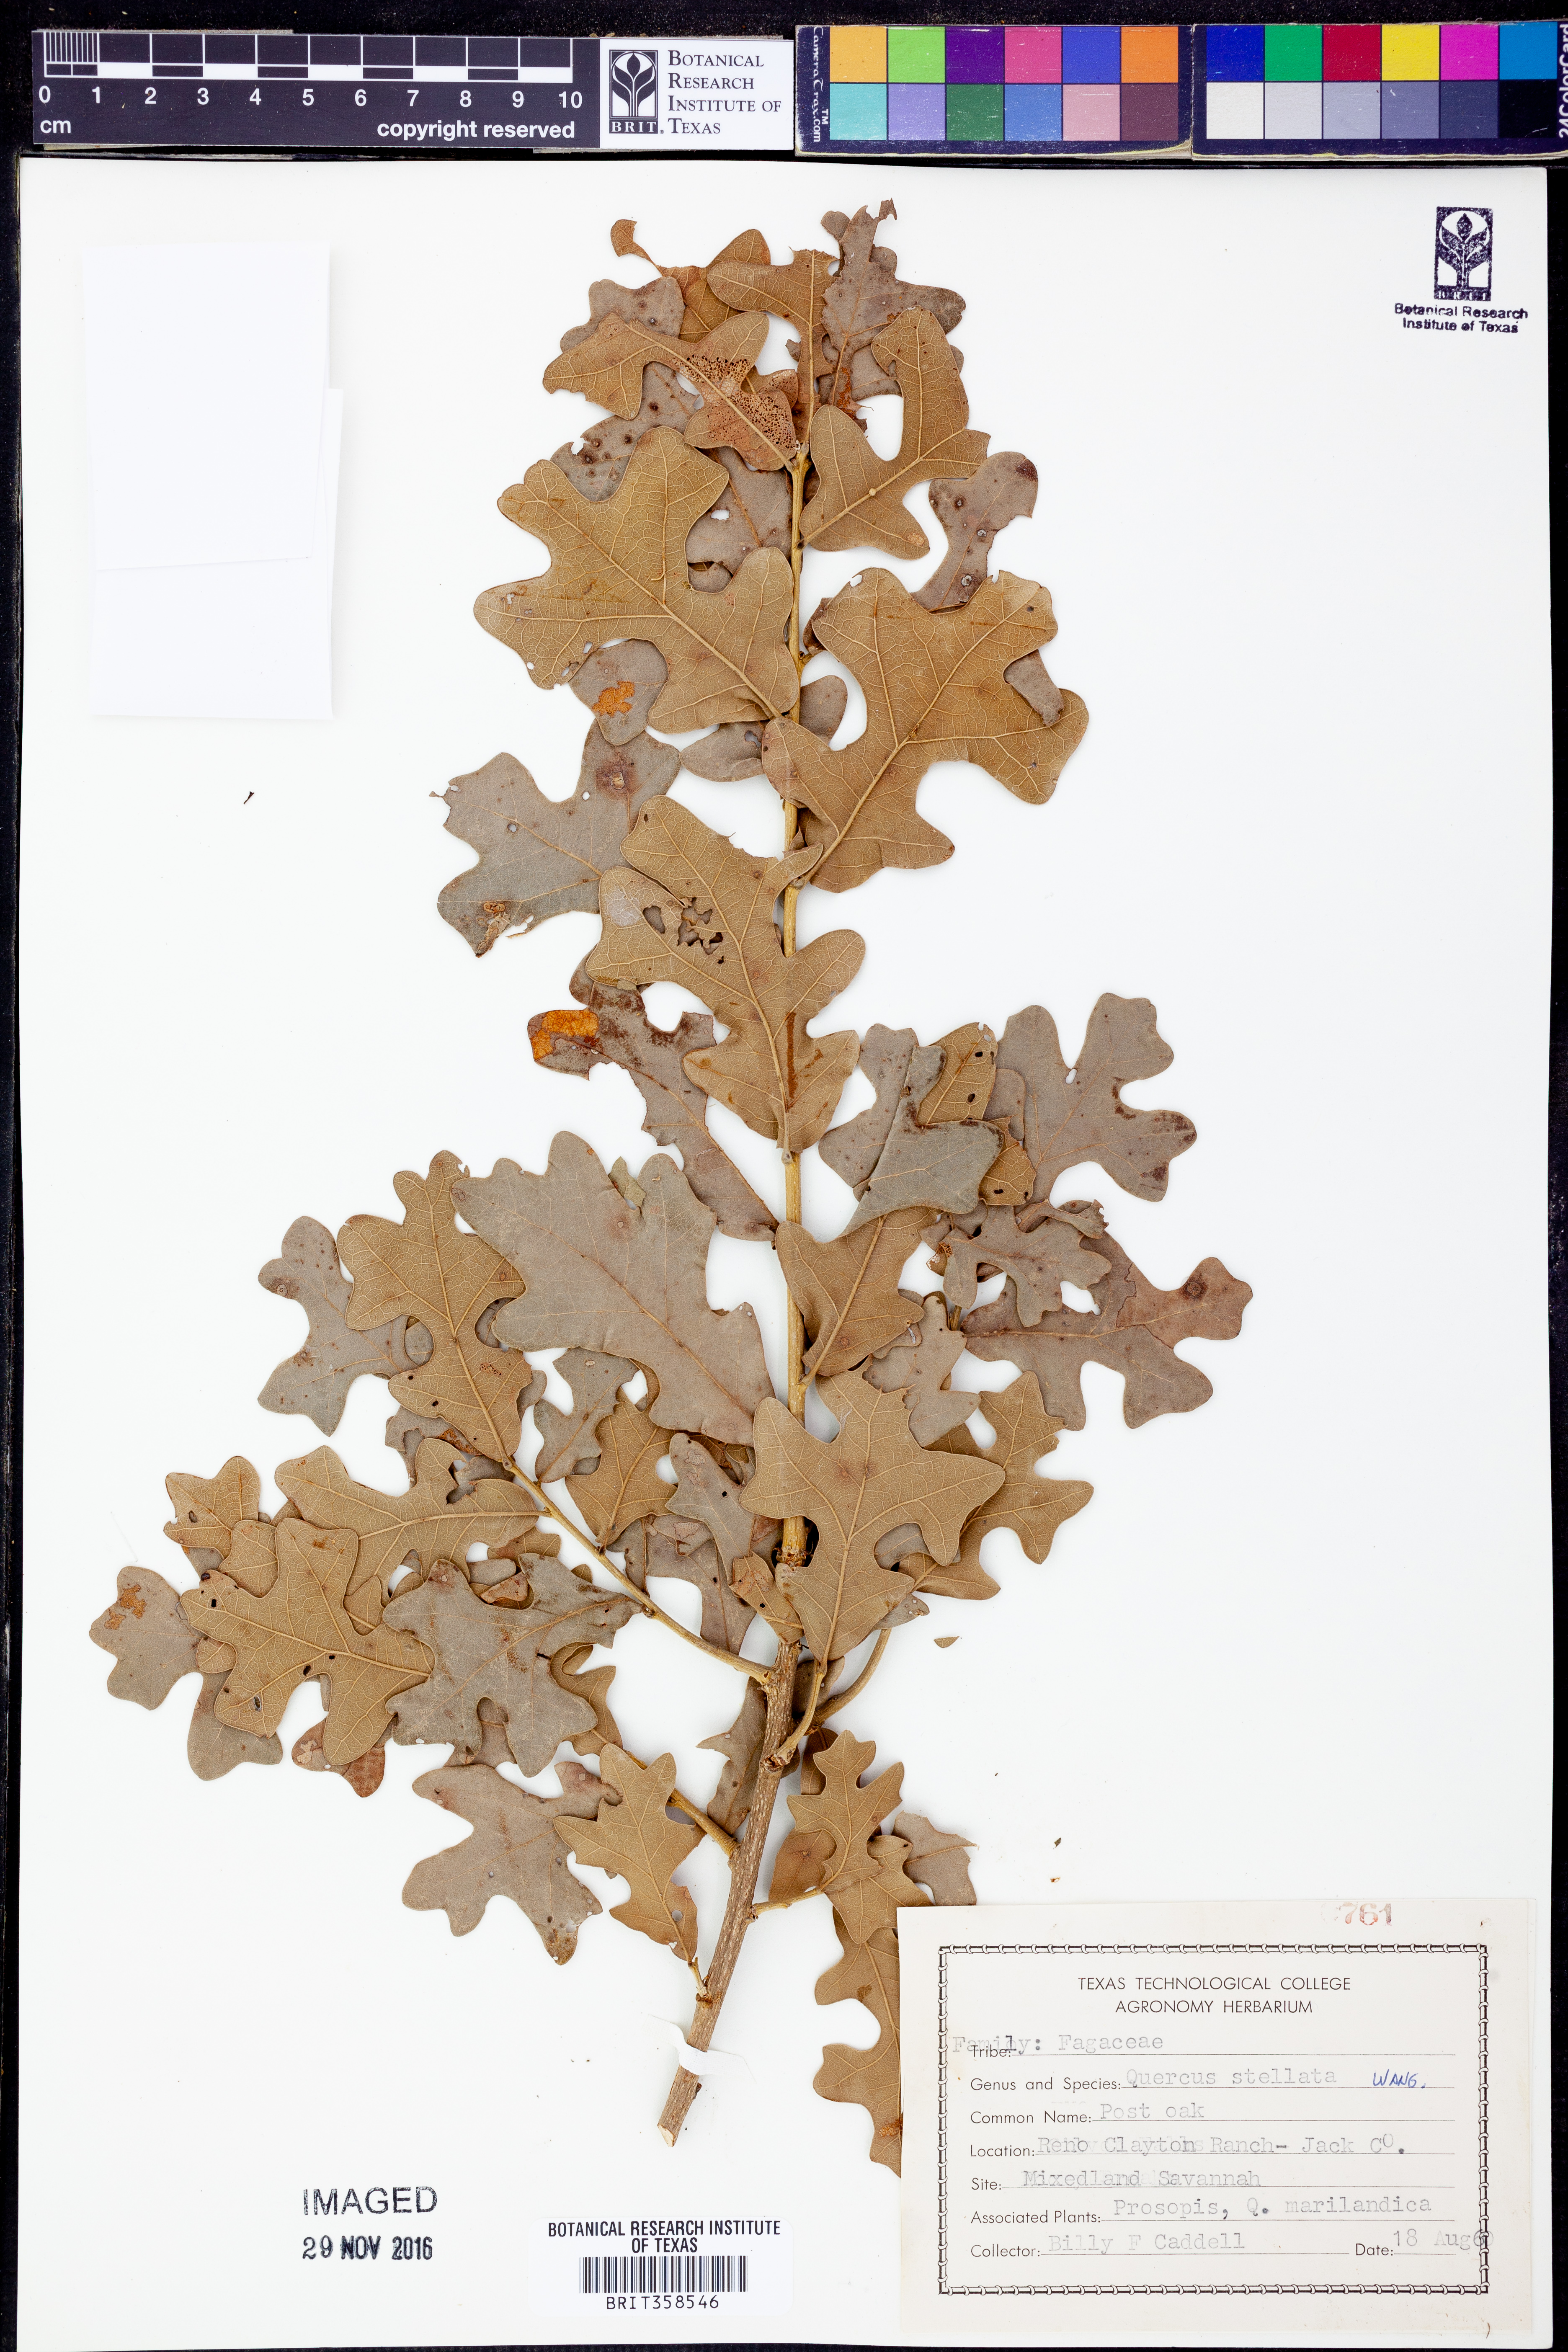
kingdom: Plantae
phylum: Tracheophyta
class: Magnoliopsida
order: Fagales
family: Fagaceae
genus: Quercus
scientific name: Quercus stellata
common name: Post oak
